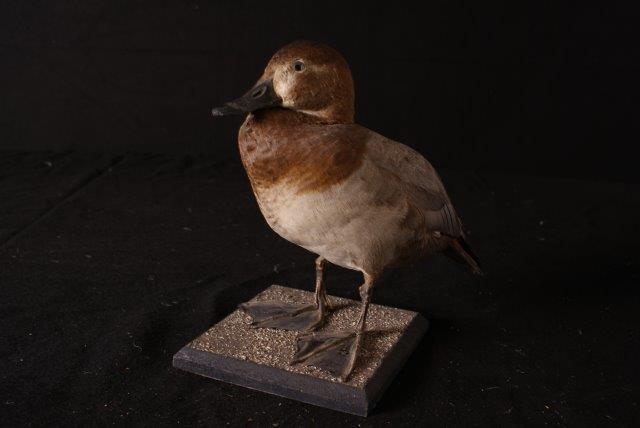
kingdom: Animalia
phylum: Chordata
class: Aves
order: Anseriformes
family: Anatidae
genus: Aythya
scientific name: Aythya ferina
